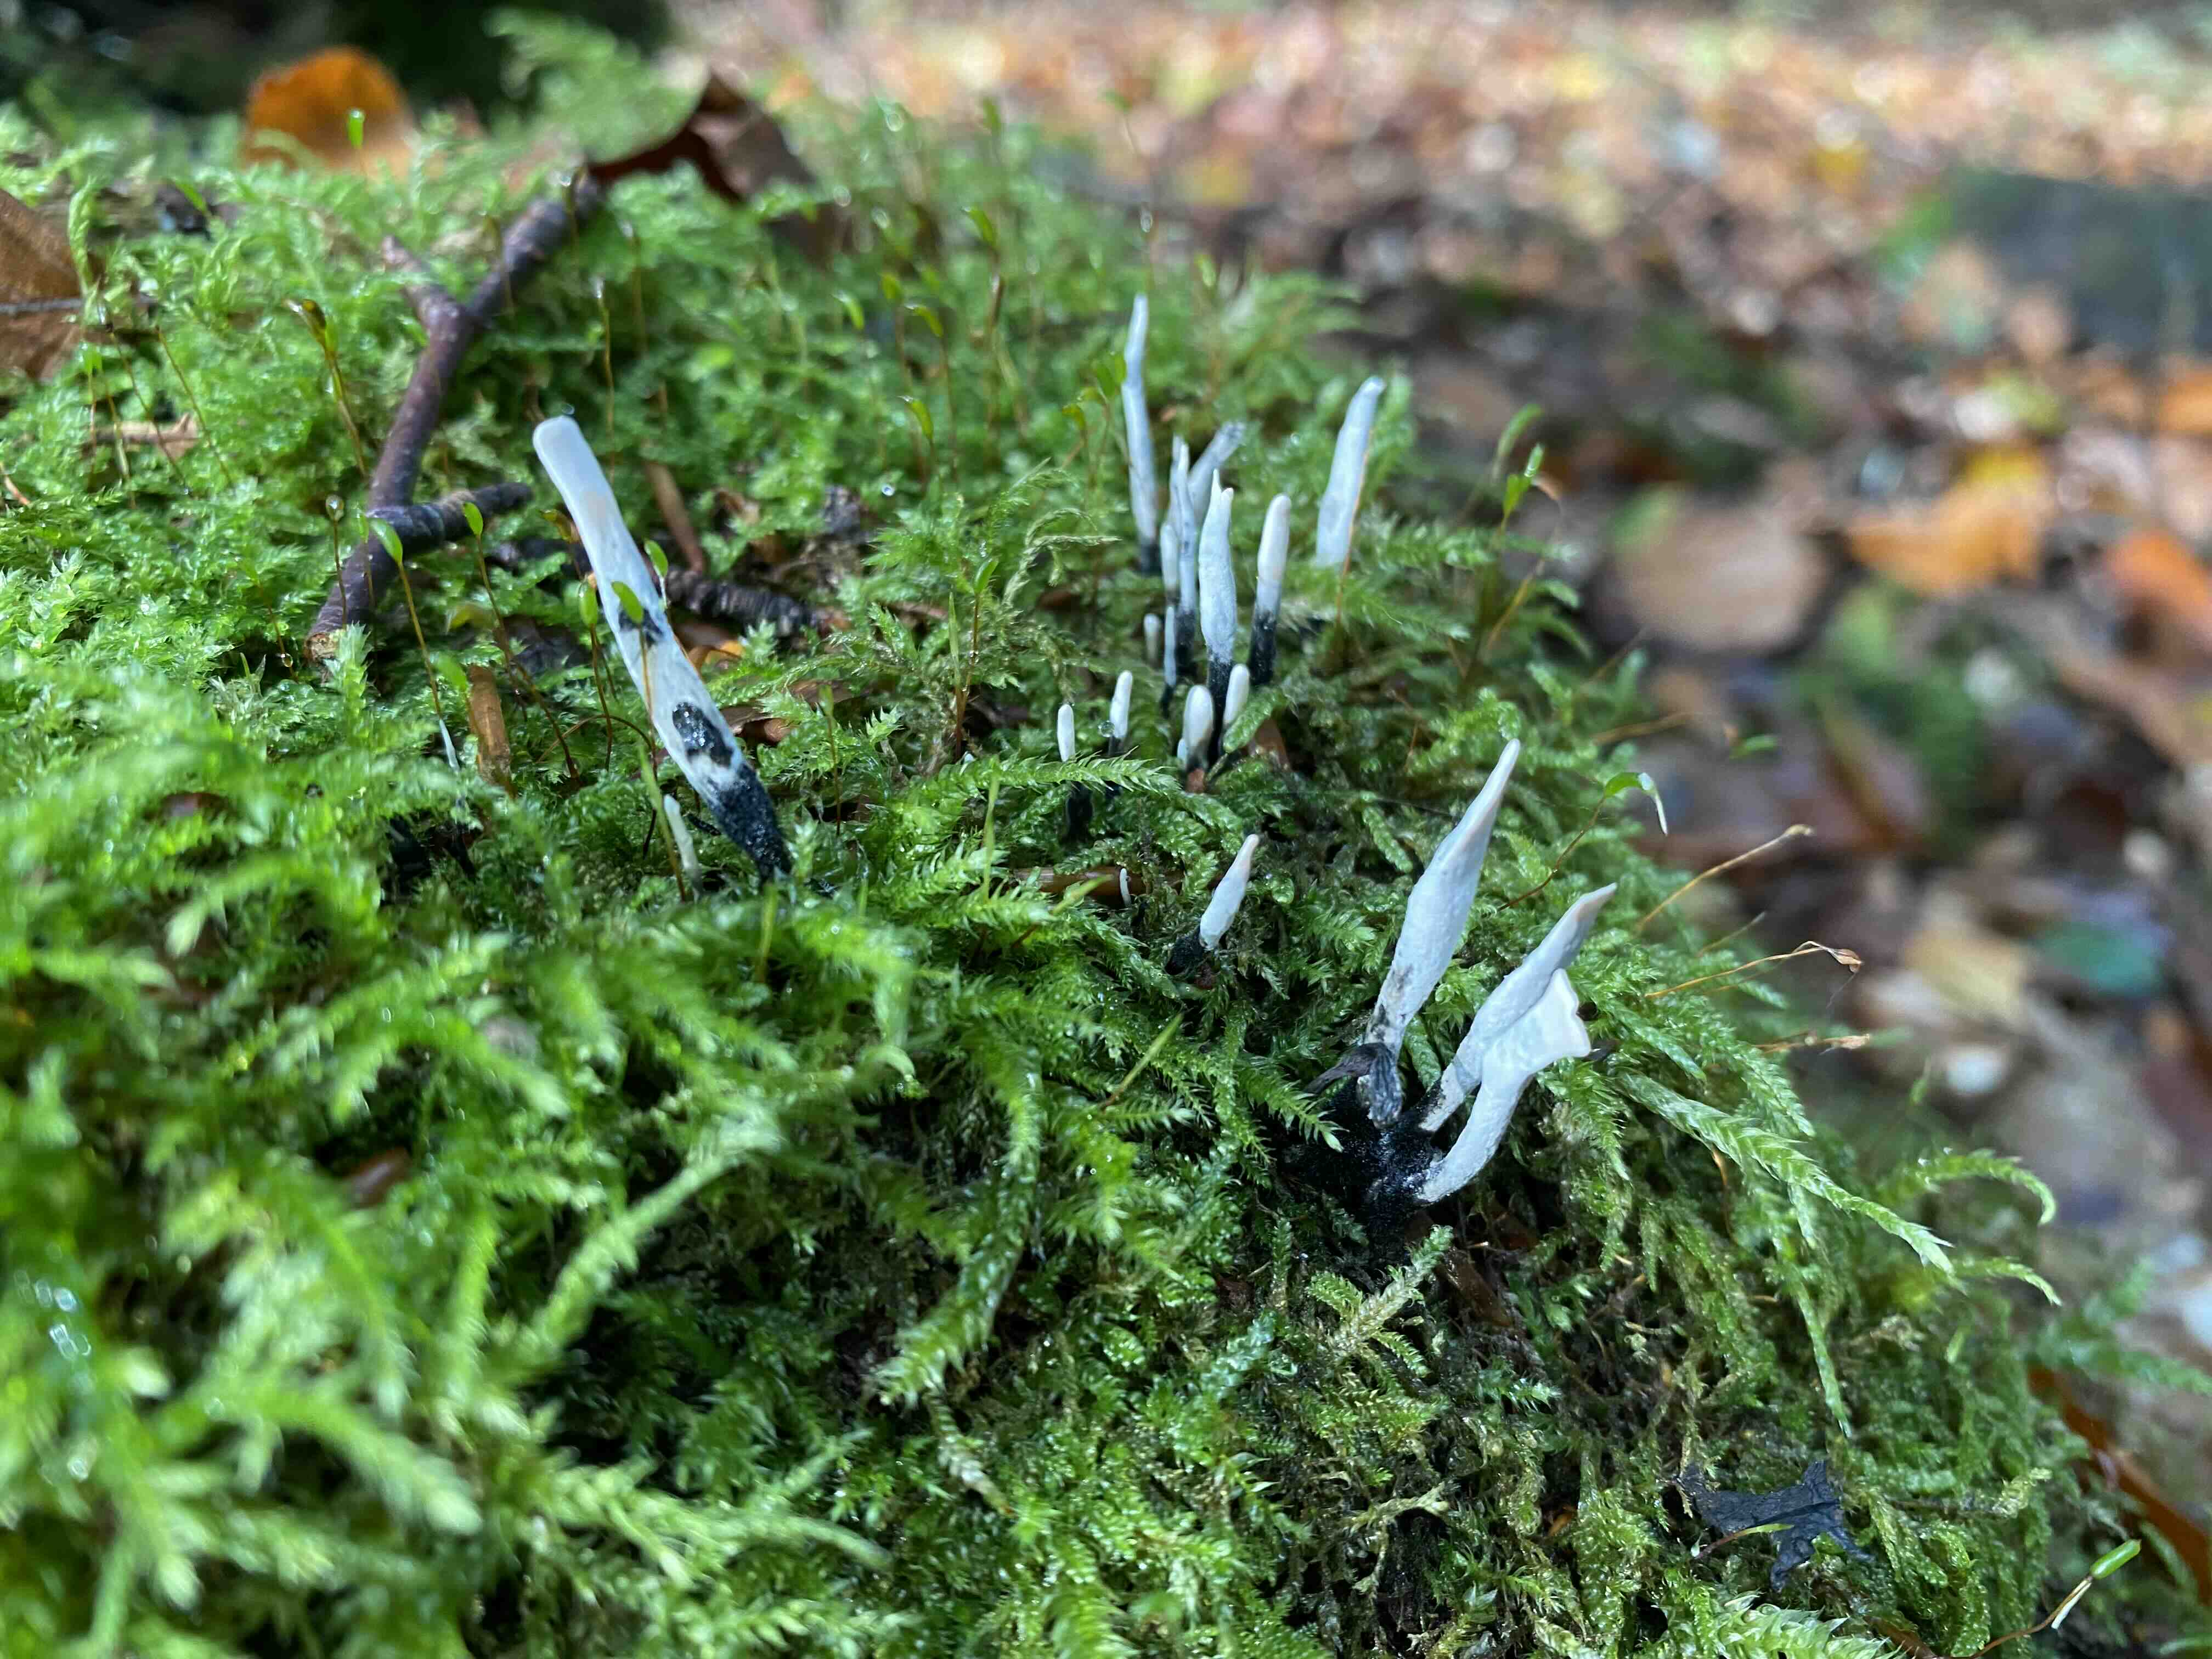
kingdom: Fungi
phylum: Ascomycota
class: Sordariomycetes
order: Xylariales
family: Xylariaceae
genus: Xylaria
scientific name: Xylaria hypoxylon
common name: grenet stødsvamp
